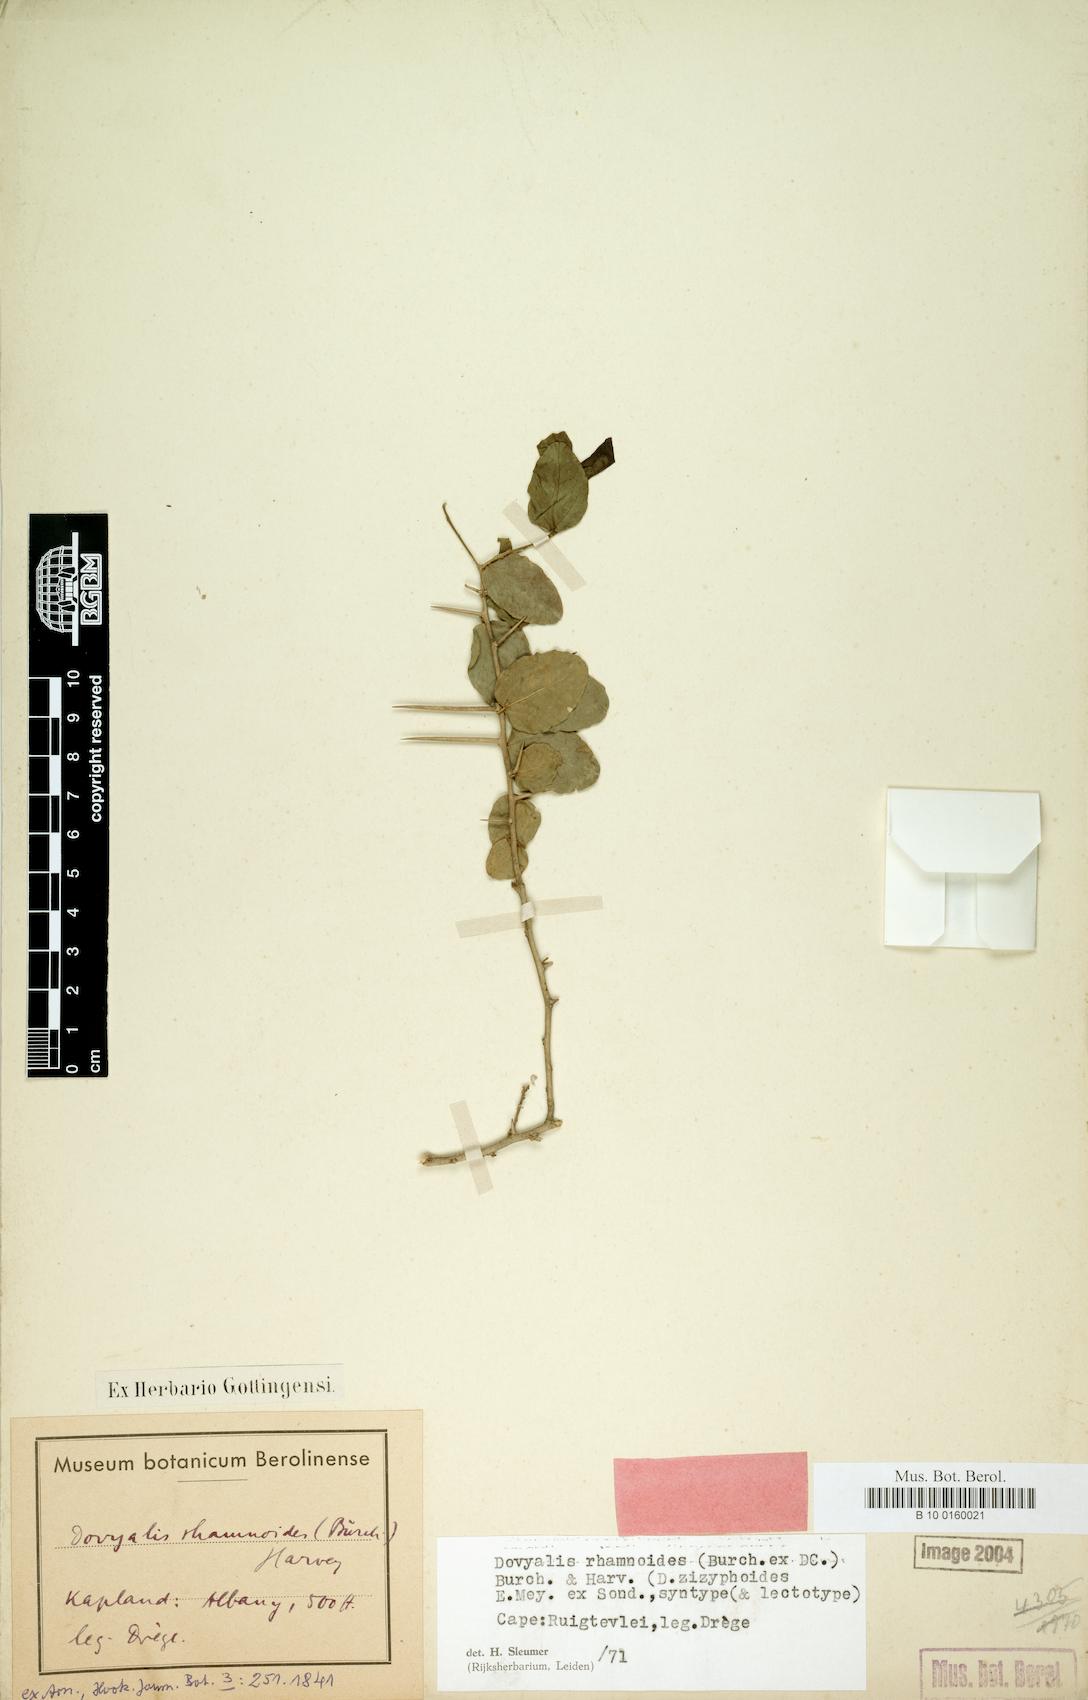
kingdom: Plantae
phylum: Tracheophyta
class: Magnoliopsida
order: Malpighiales
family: Salicaceae
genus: Dovyalis
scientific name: Dovyalis rhamnoides
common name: Sourberry
